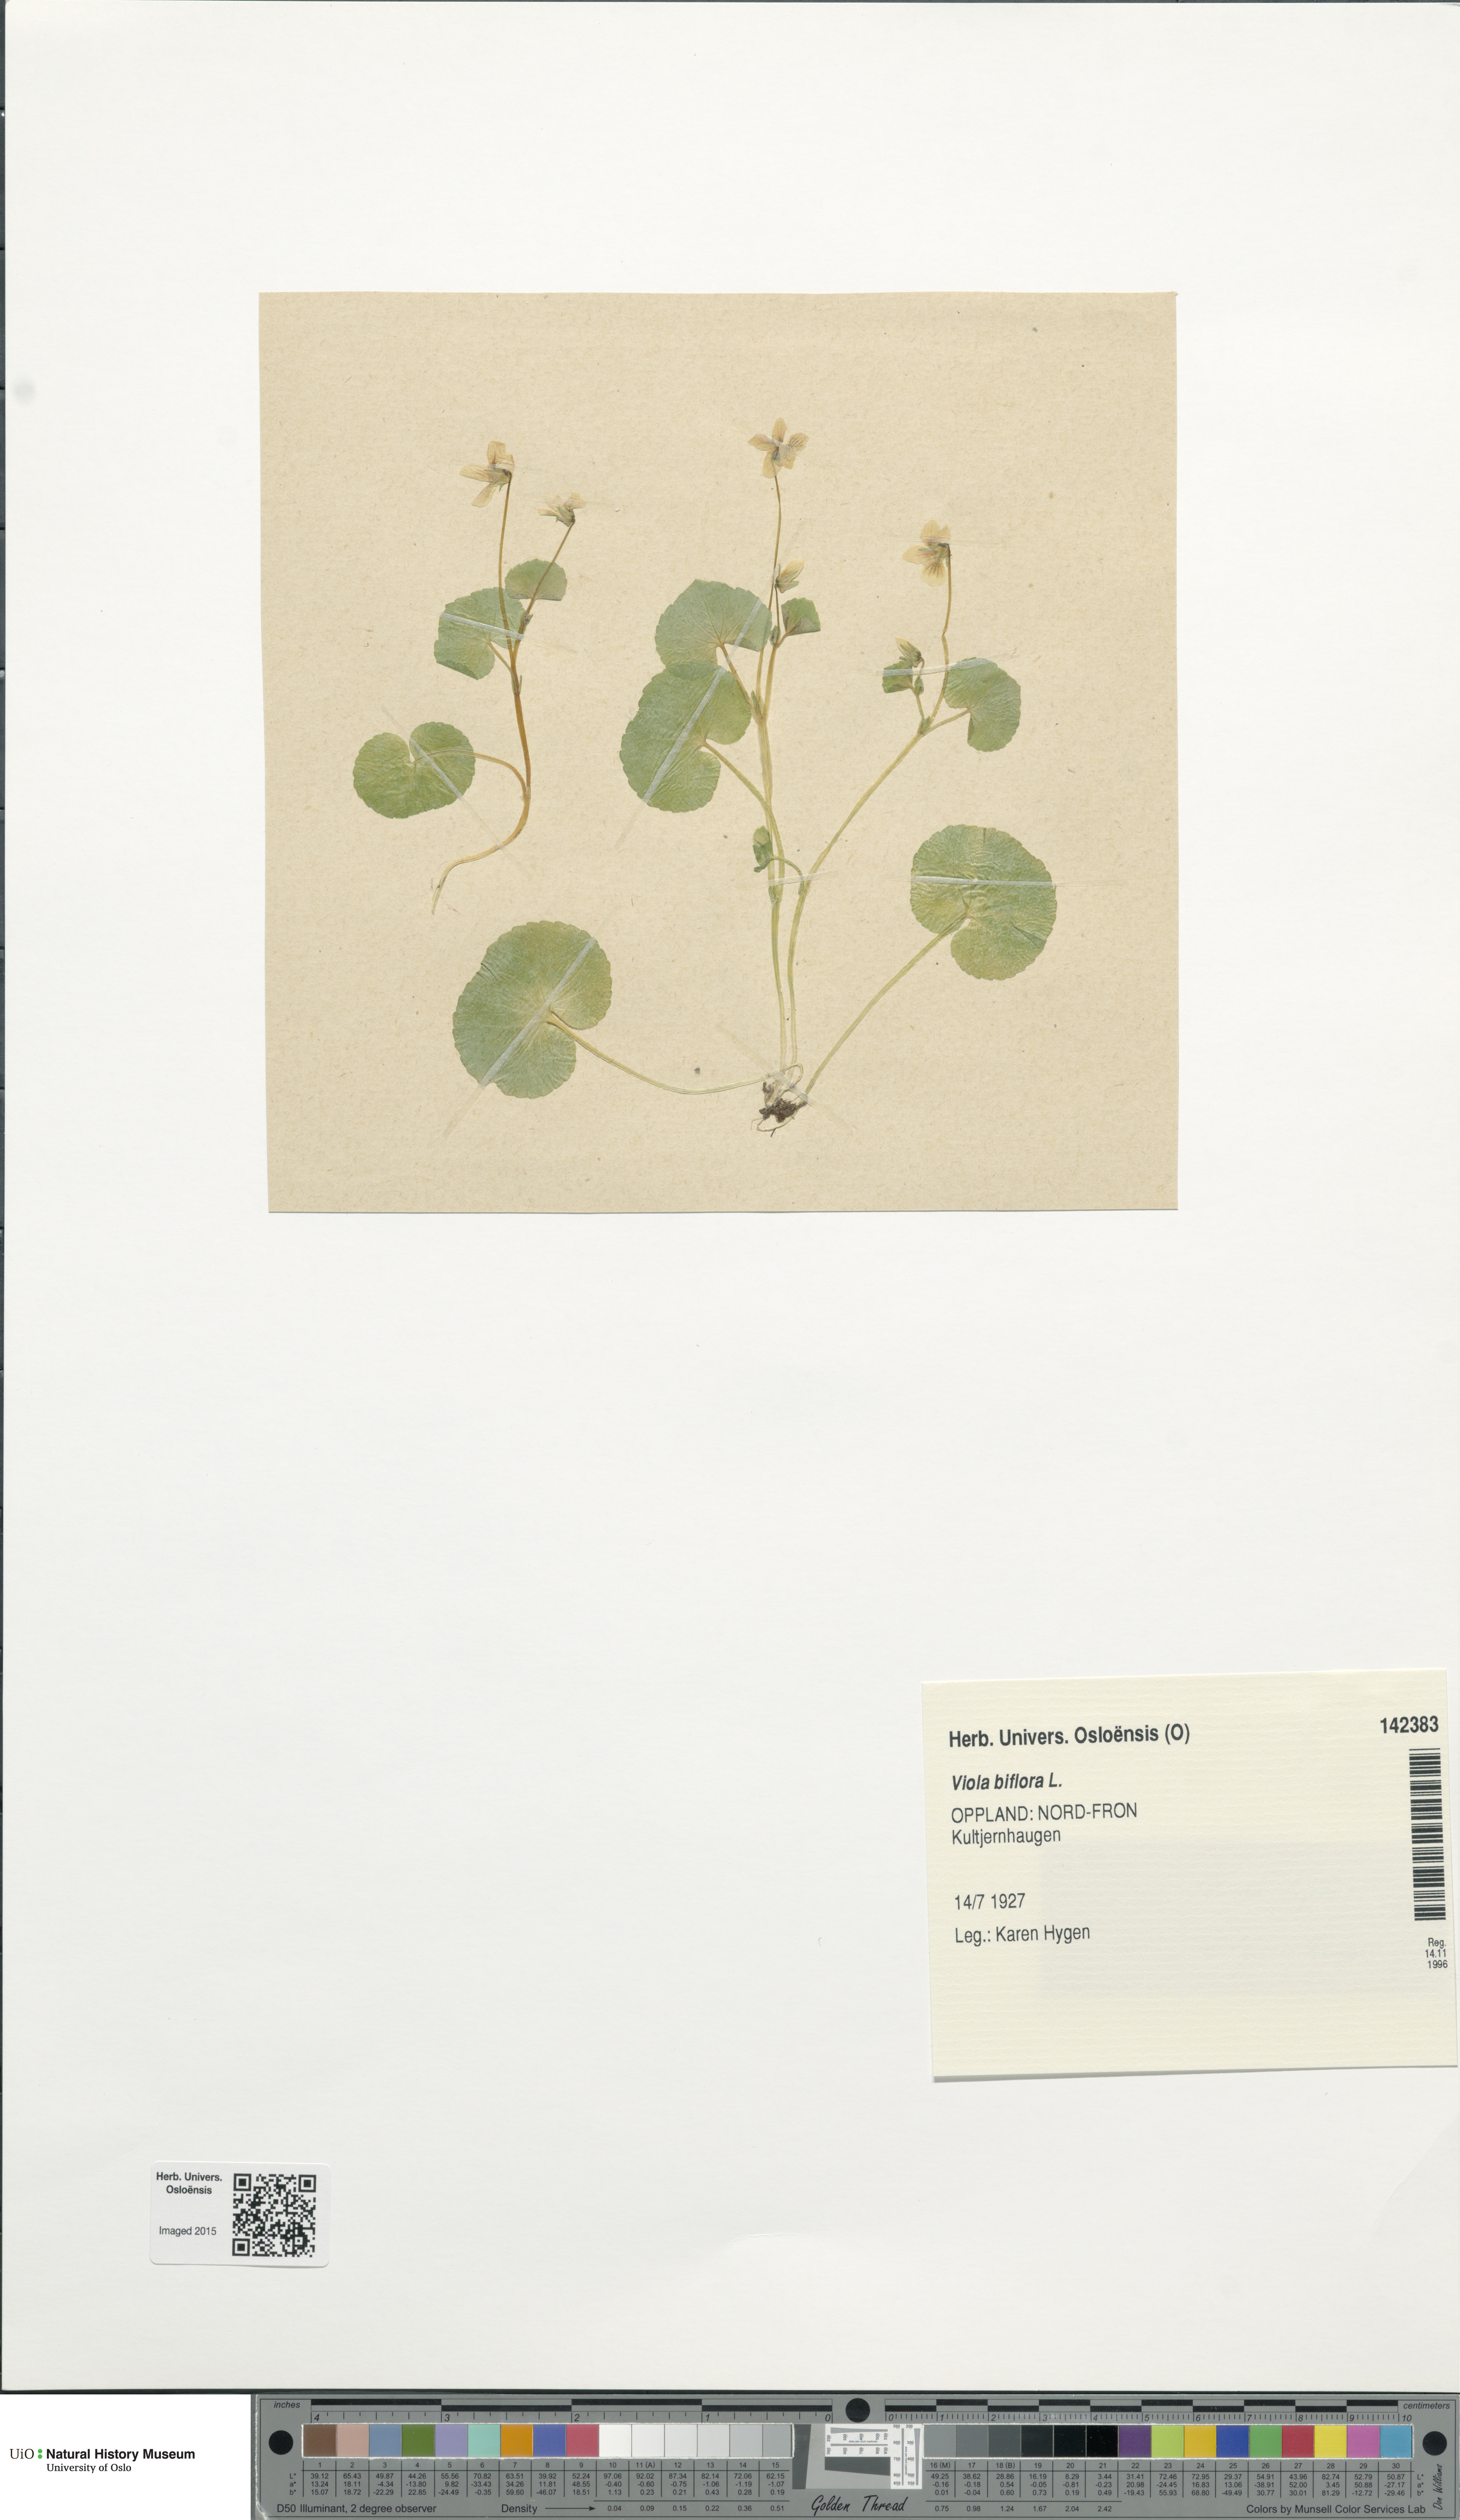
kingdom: Plantae
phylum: Tracheophyta
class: Magnoliopsida
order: Malpighiales
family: Violaceae
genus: Viola
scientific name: Viola biflora
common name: Alpine yellow violet
